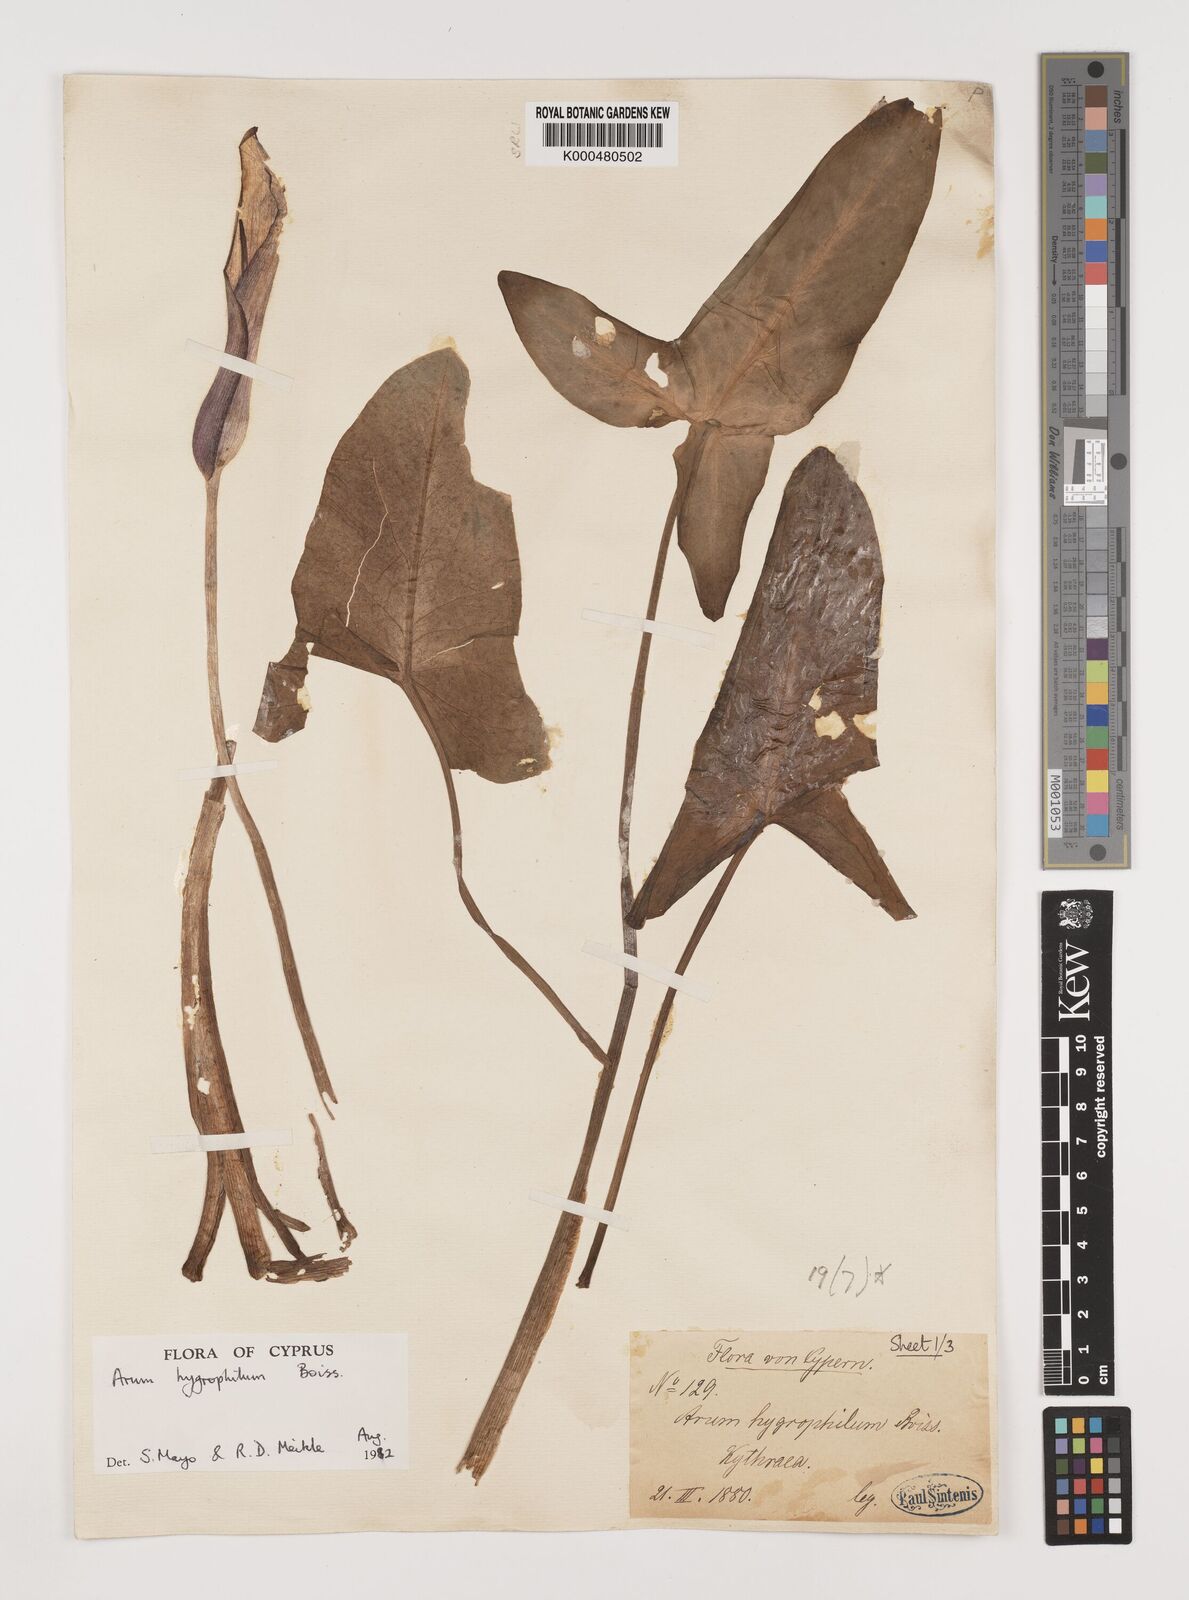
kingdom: Plantae
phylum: Tracheophyta
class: Liliopsida
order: Alismatales
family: Araceae
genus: Arum
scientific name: Arum hygrophilum
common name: Water arum
